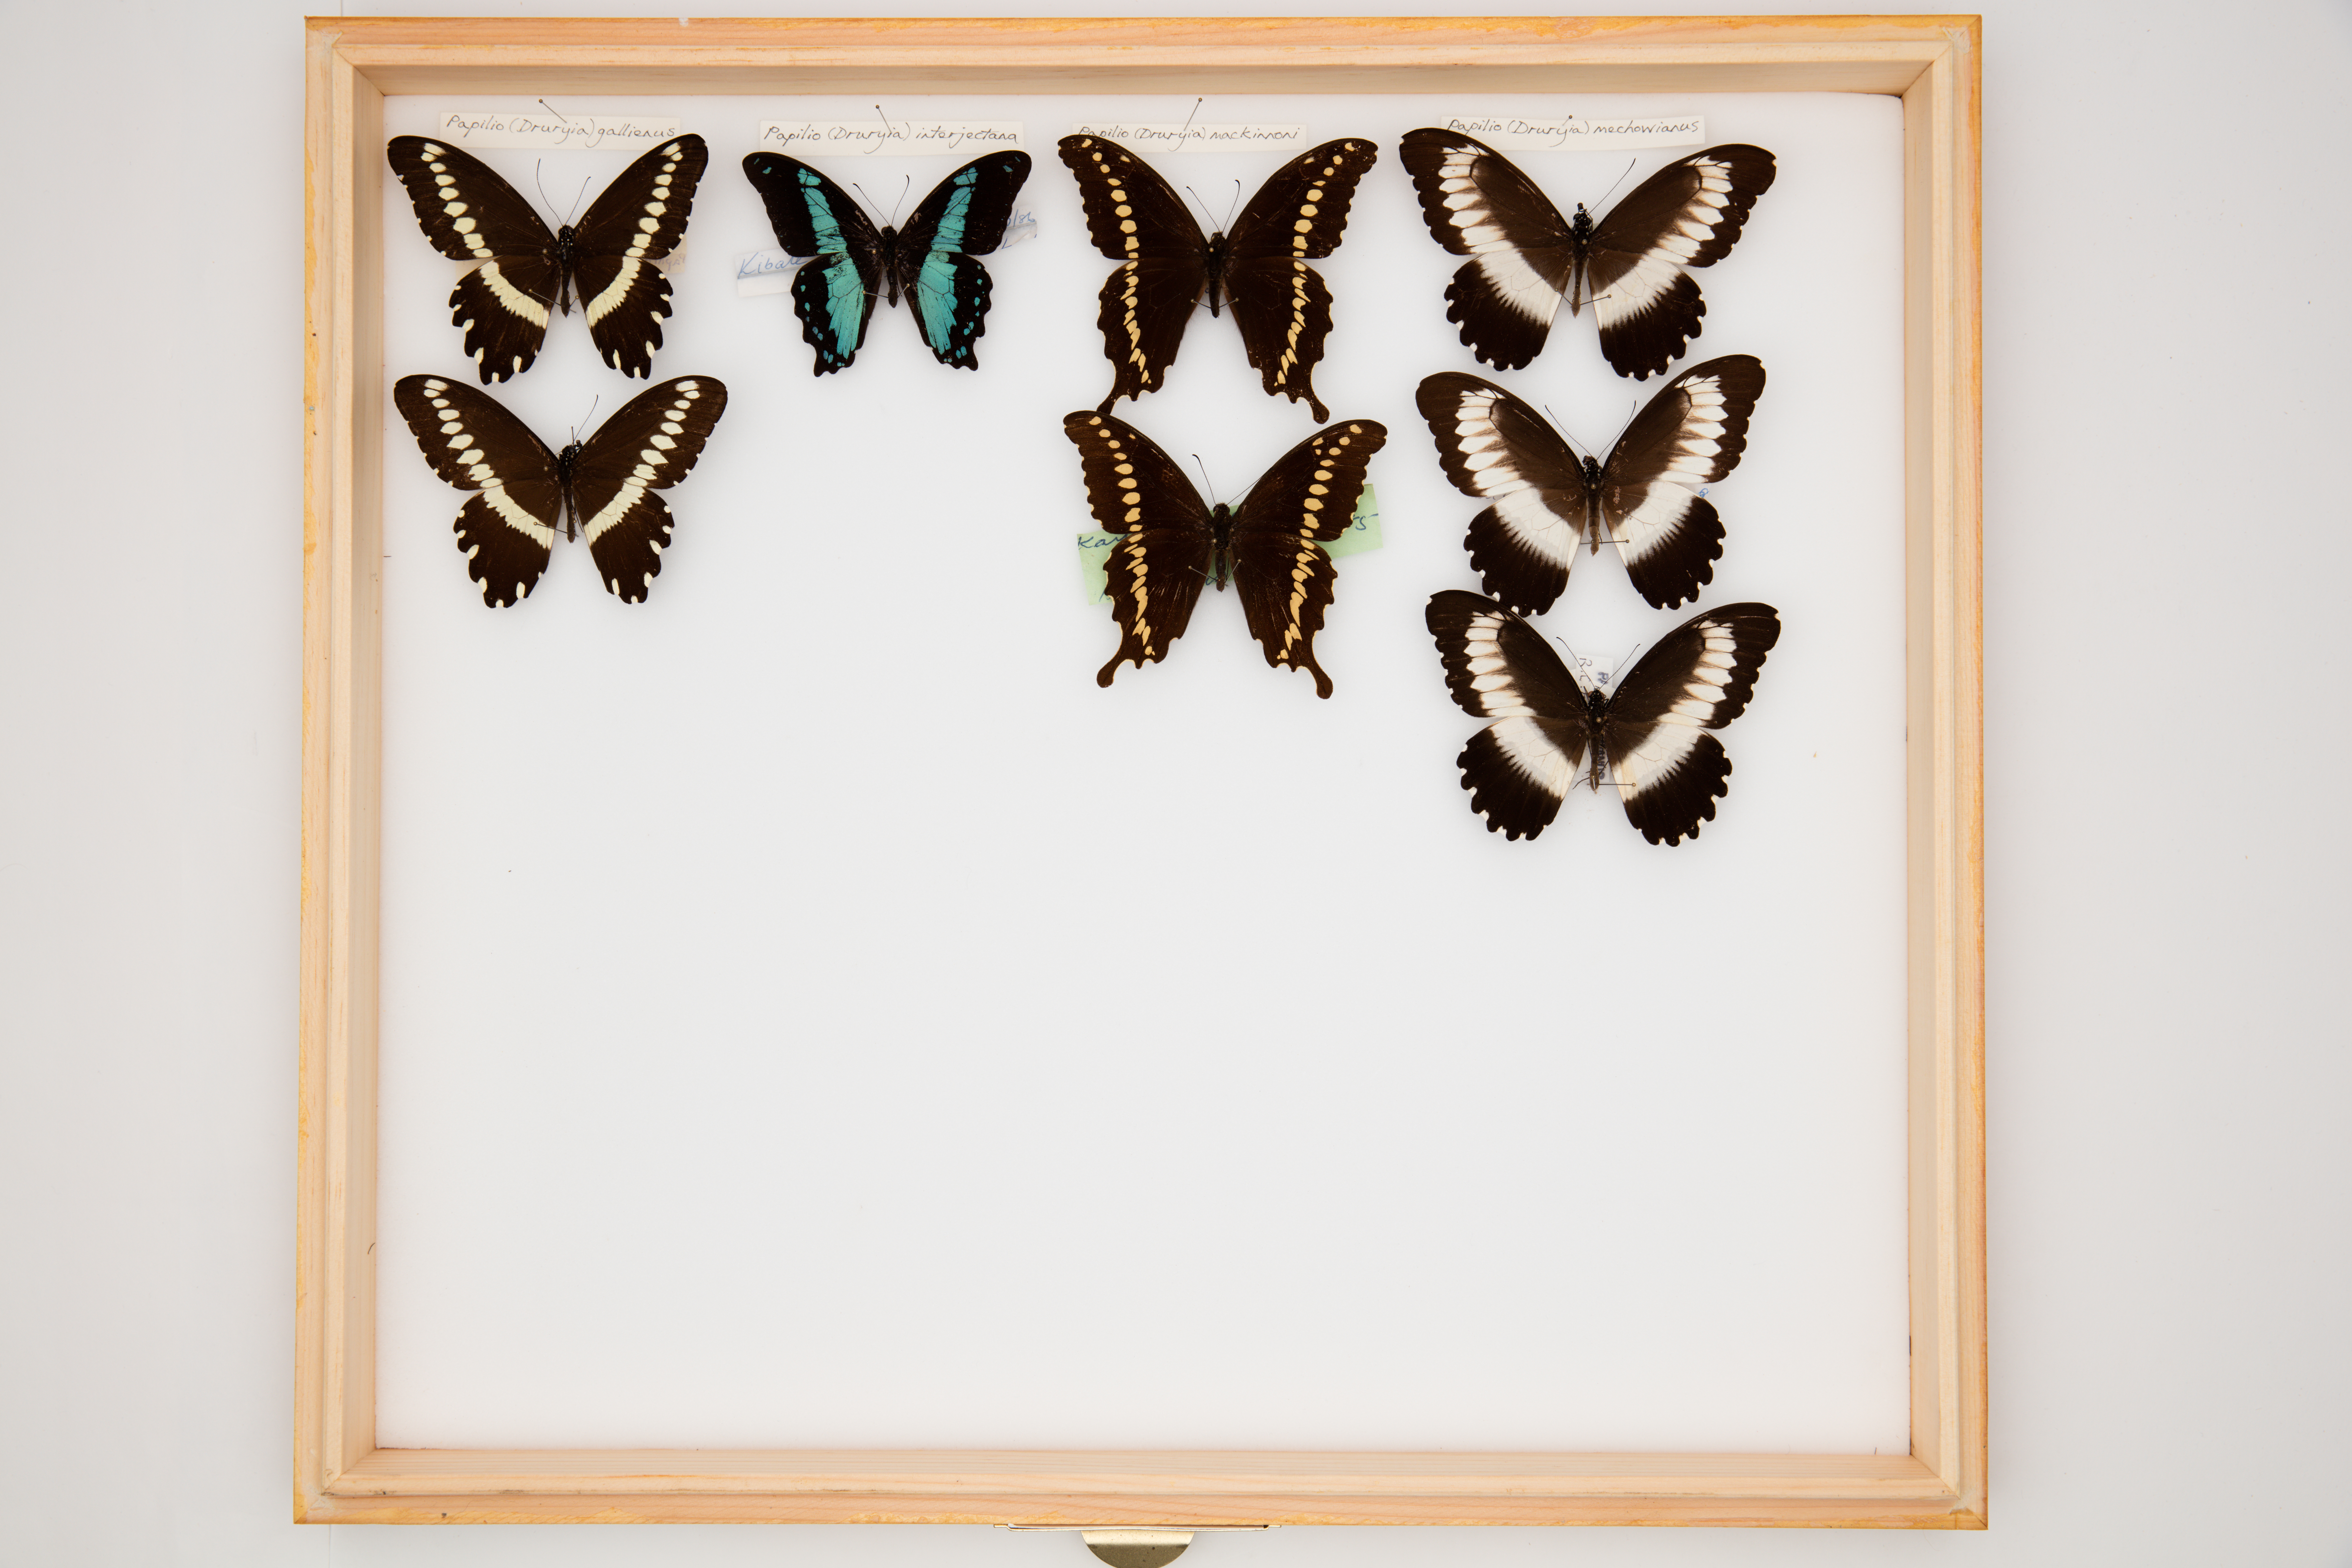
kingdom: Animalia
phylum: Arthropoda
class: Insecta
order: Lepidoptera
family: Papilionidae
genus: Papilio
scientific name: Papilio interjectana
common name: Van someren's green-banded swallowtail
